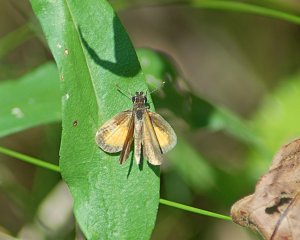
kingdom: Animalia
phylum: Arthropoda
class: Insecta
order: Lepidoptera
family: Hesperiidae
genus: Ancyloxypha
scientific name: Ancyloxypha numitor
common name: Least Skipper
